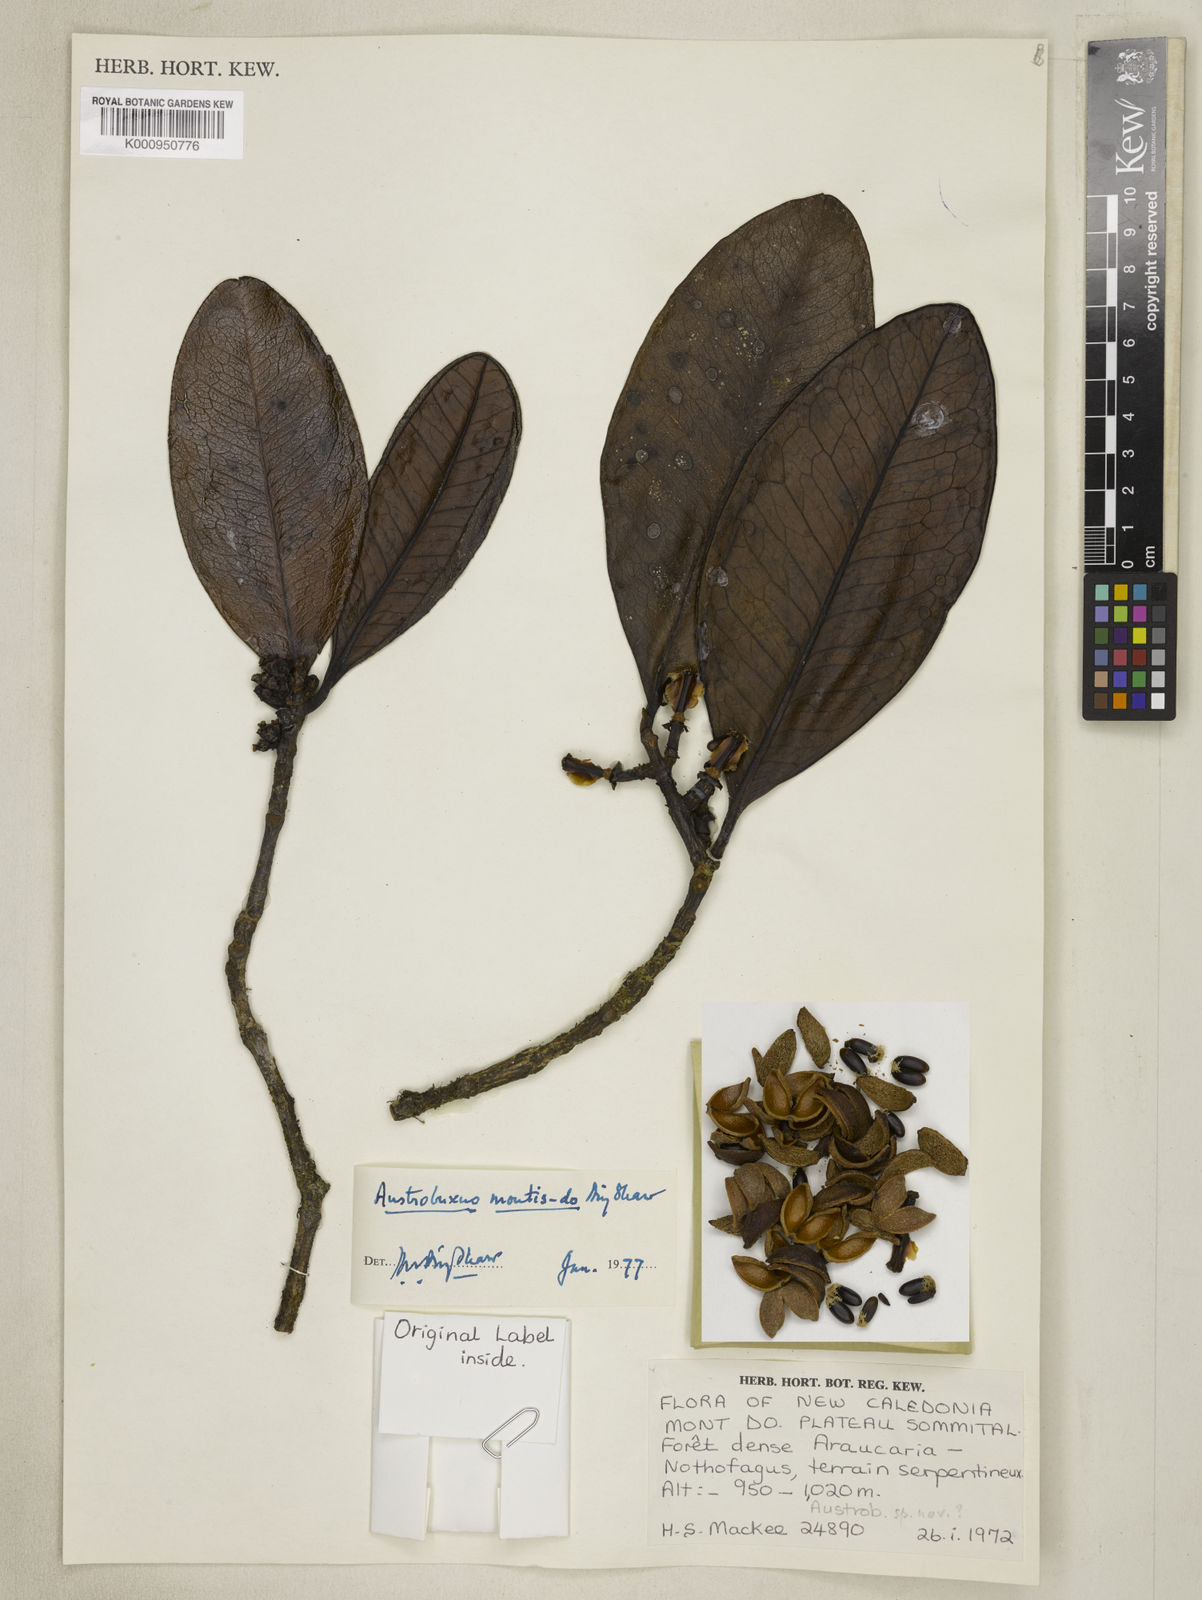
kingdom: Plantae
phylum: Tracheophyta
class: Magnoliopsida
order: Malpighiales
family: Picrodendraceae
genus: Austrobuxus
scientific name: Austrobuxus montis-do
